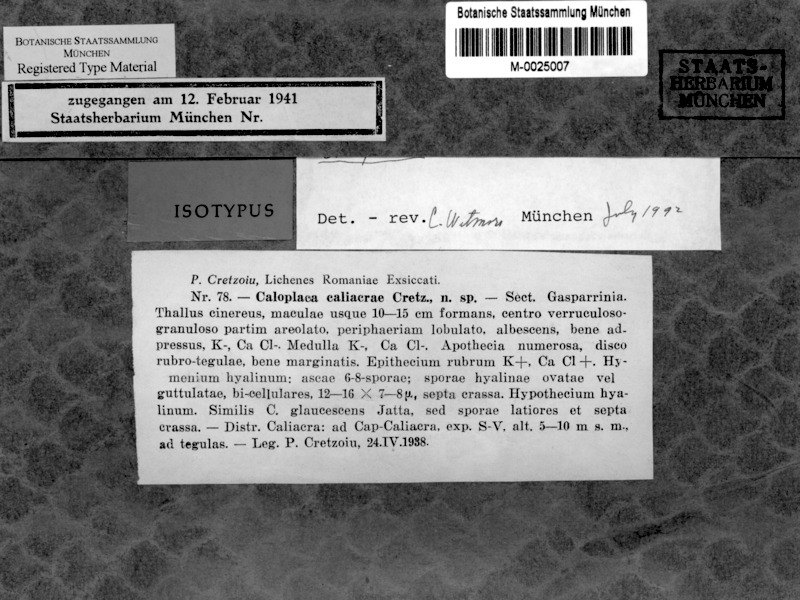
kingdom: Fungi
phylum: Ascomycota
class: Lecanoromycetes
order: Teloschistales
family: Teloschistaceae
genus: Kuettlingeria
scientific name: Kuettlingeria teicholyta
